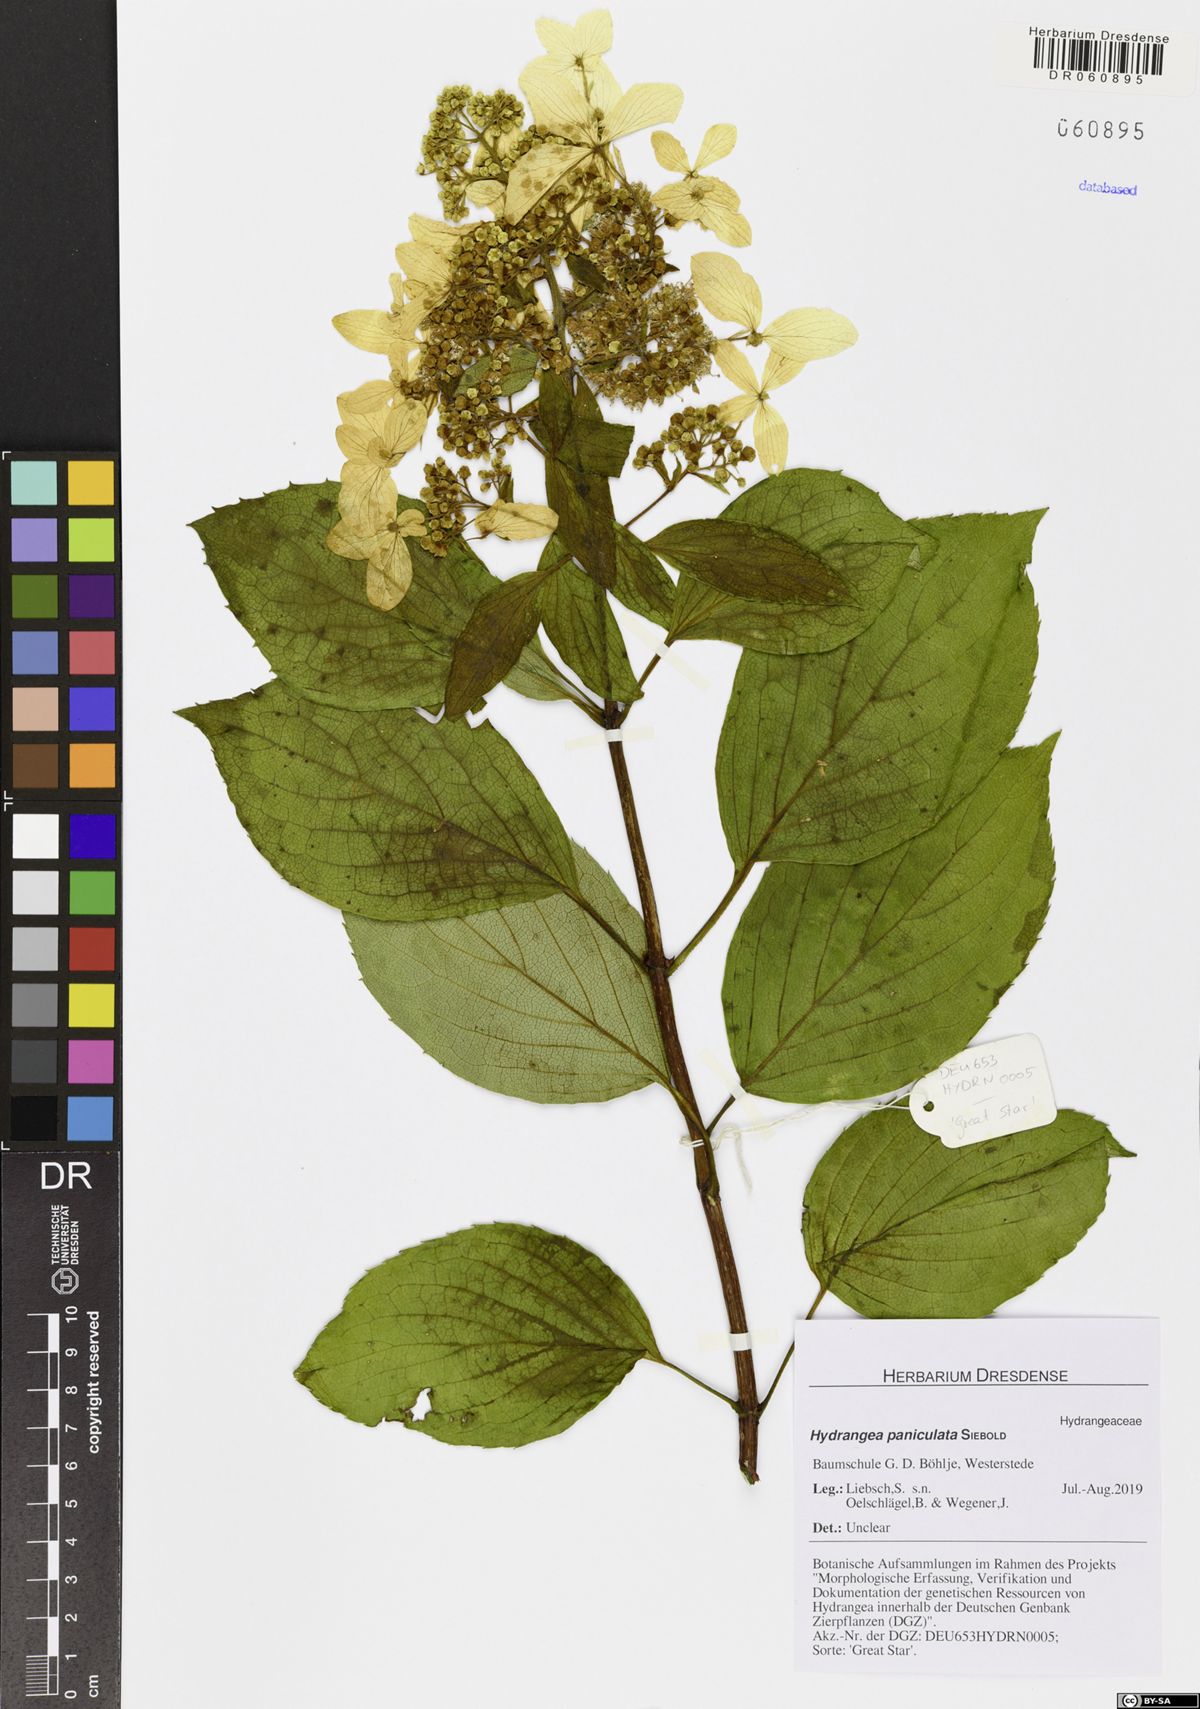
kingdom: Plantae
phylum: Tracheophyta
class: Magnoliopsida
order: Cornales
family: Hydrangeaceae
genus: Hydrangea
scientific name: Hydrangea paniculata
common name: Panicled hydrangea
